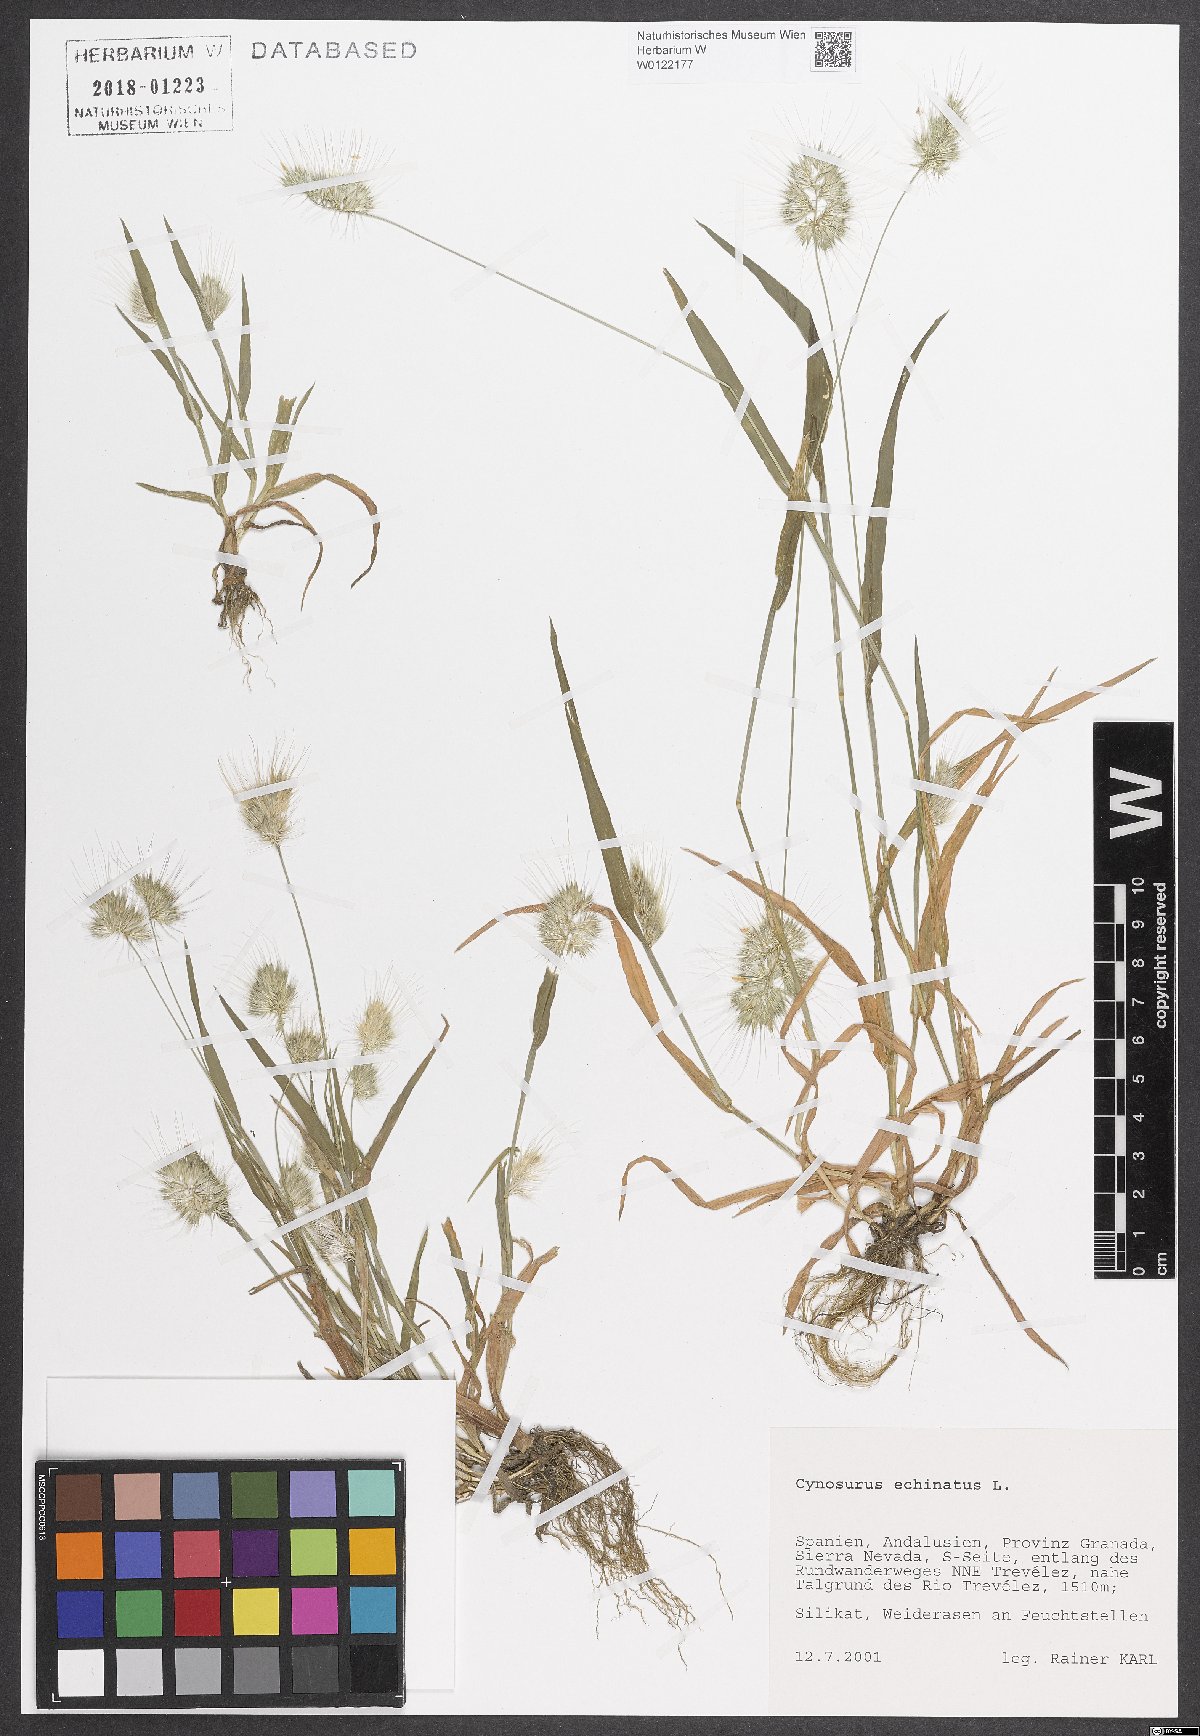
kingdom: Plantae
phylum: Tracheophyta
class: Liliopsida
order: Poales
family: Poaceae
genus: Cynosurus
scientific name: Cynosurus echinatus
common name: Rough dog's-tail
